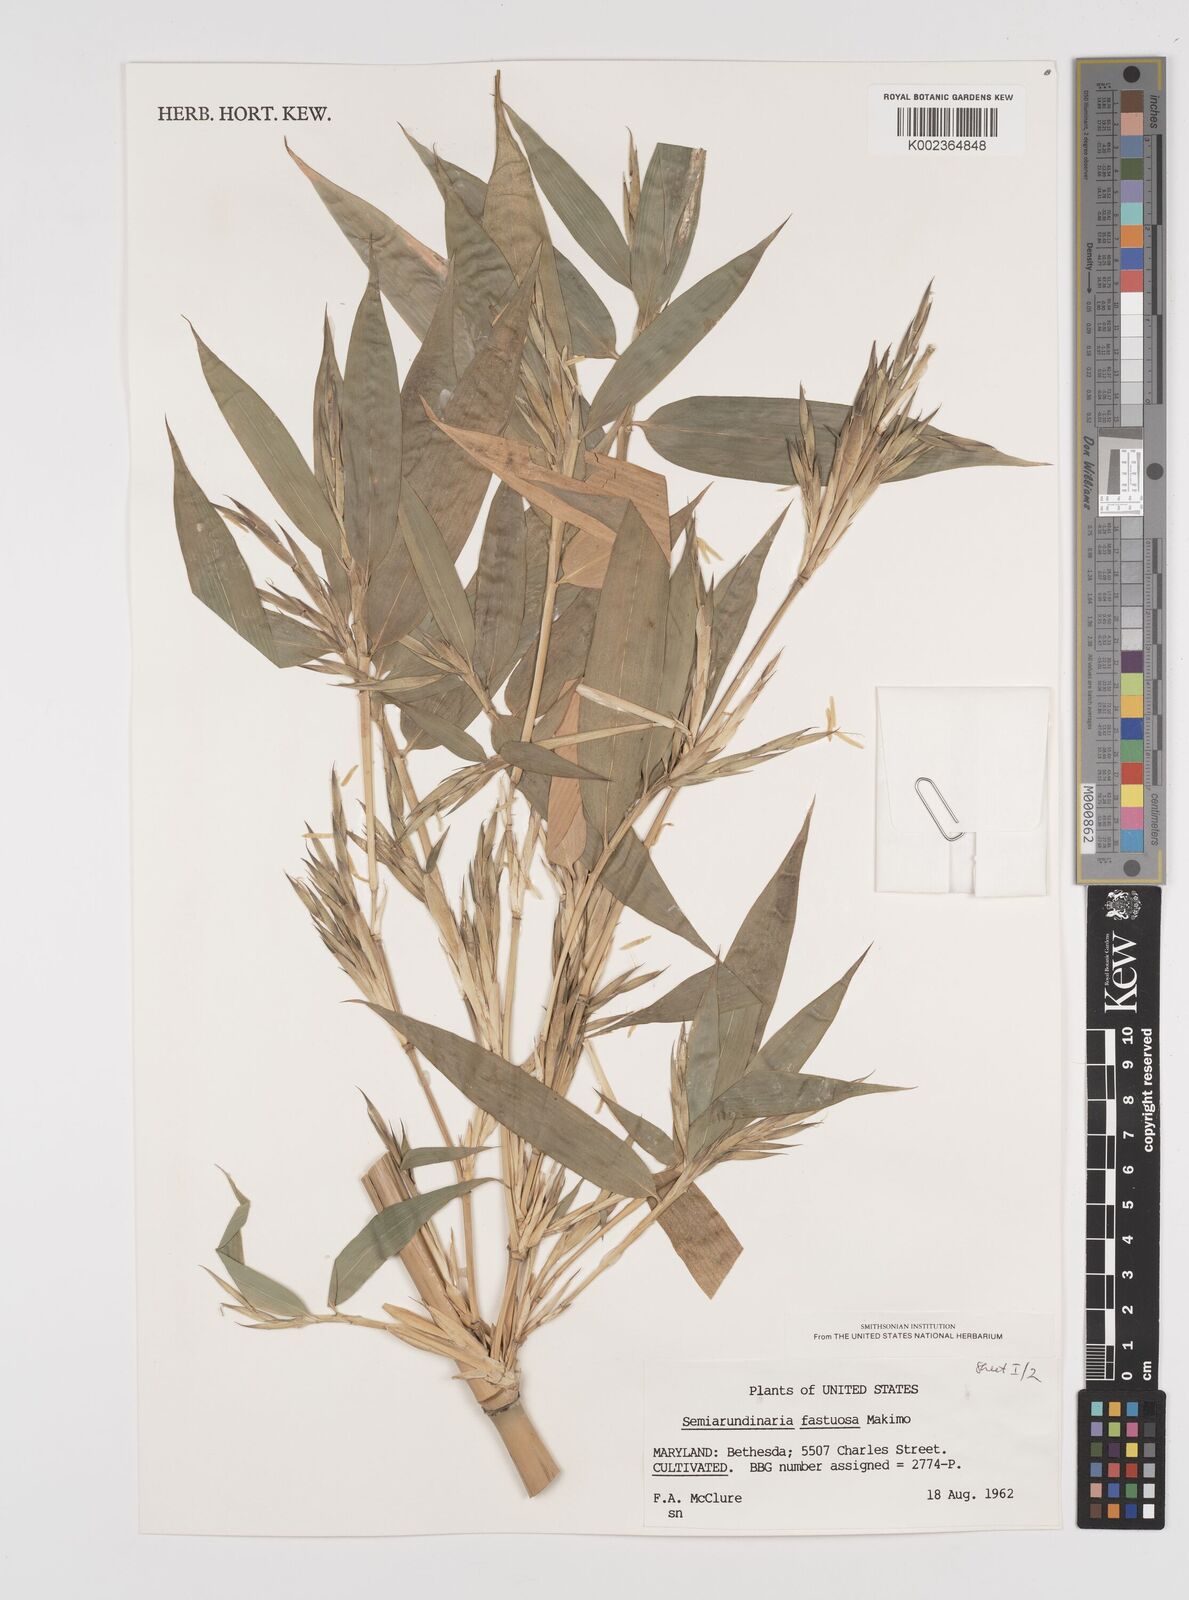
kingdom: Plantae
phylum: Tracheophyta
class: Liliopsida
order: Poales
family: Poaceae
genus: Semiarundinaria
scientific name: Semiarundinaria fastuosa
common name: Narihira bamboo
